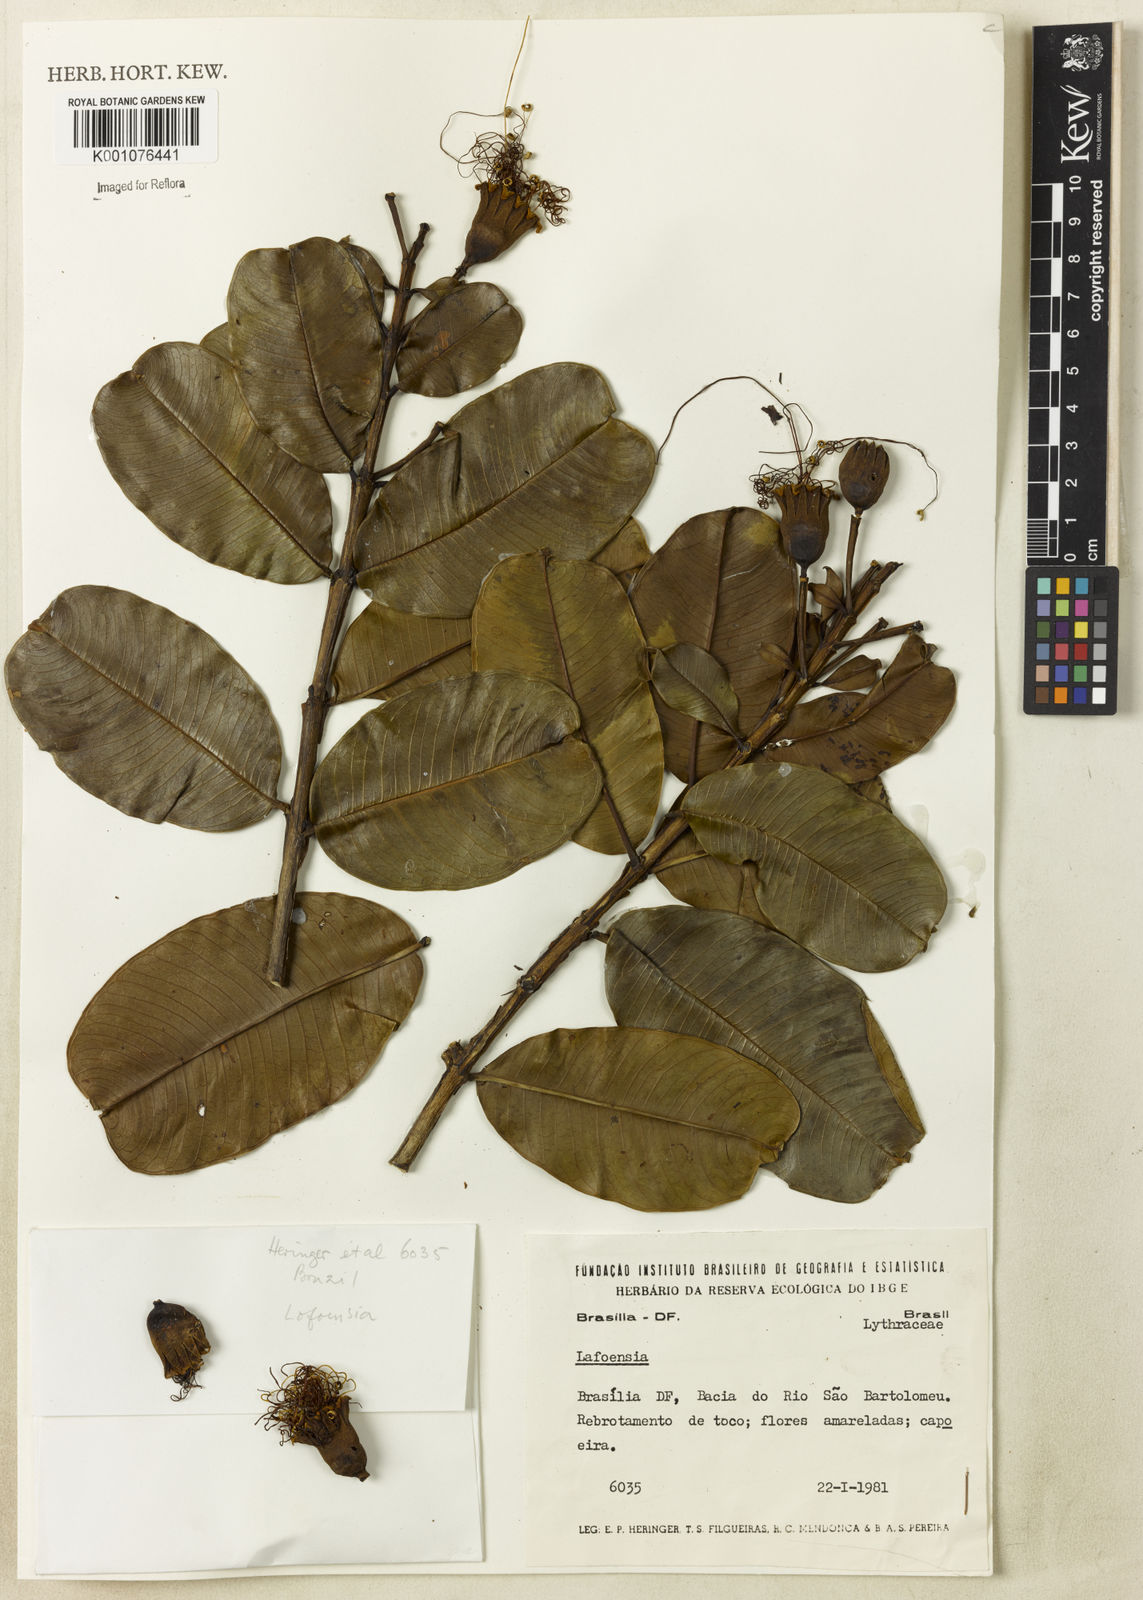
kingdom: Plantae
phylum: Tracheophyta
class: Magnoliopsida
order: Myrtales
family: Lythraceae
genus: Lafoensia
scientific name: Lafoensia
